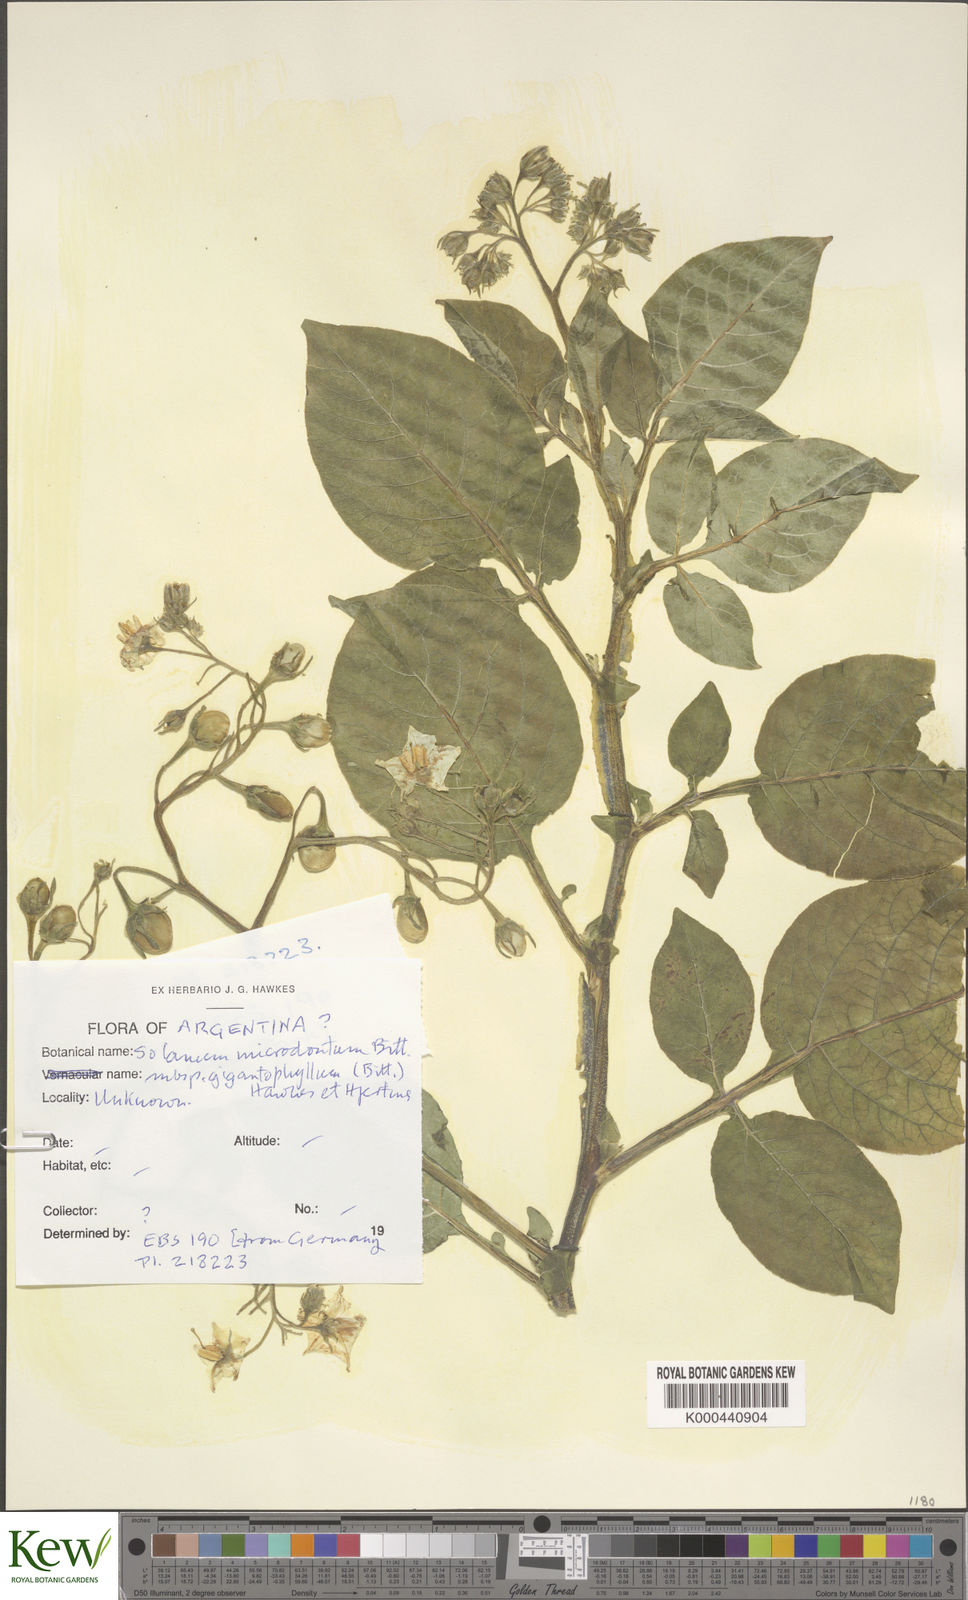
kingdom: Plantae
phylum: Tracheophyta
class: Magnoliopsida
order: Solanales
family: Solanaceae
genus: Solanum
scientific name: Solanum microdontum
